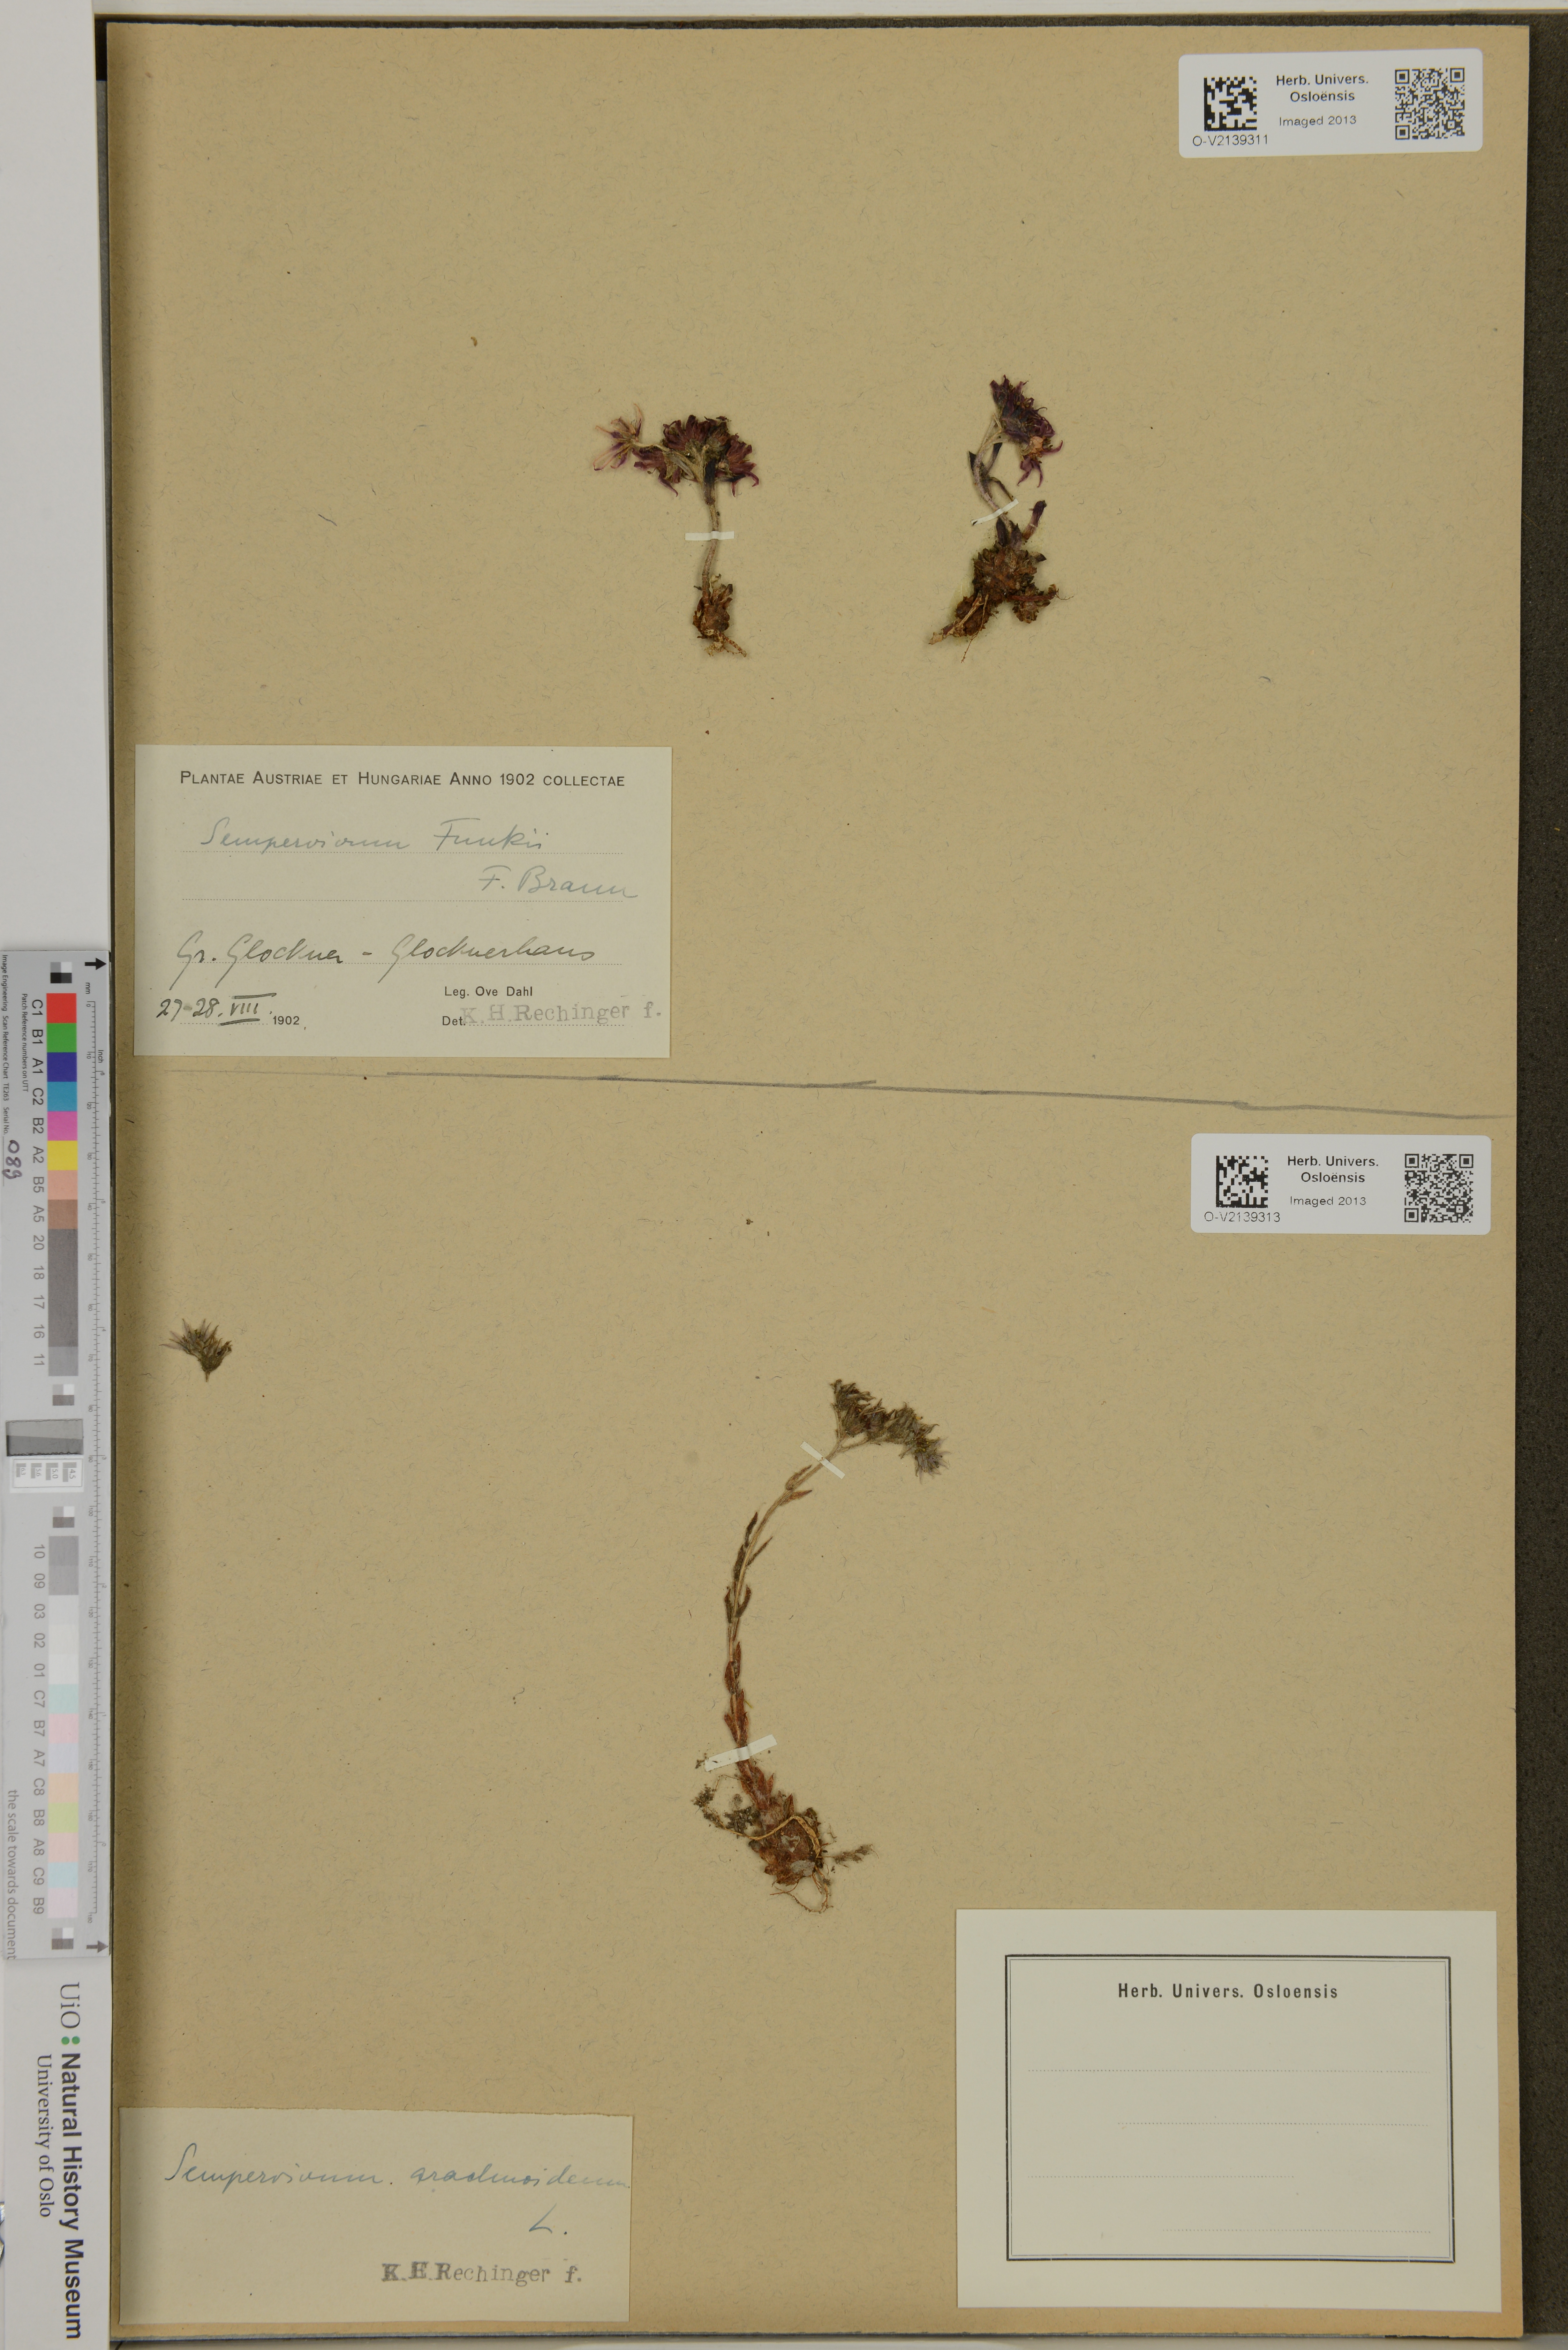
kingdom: Plantae
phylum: Tracheophyta
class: Magnoliopsida
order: Saxifragales
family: Crassulaceae
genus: Sempervivum
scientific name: Sempervivum arachnoideum
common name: Cobweb house-leek
